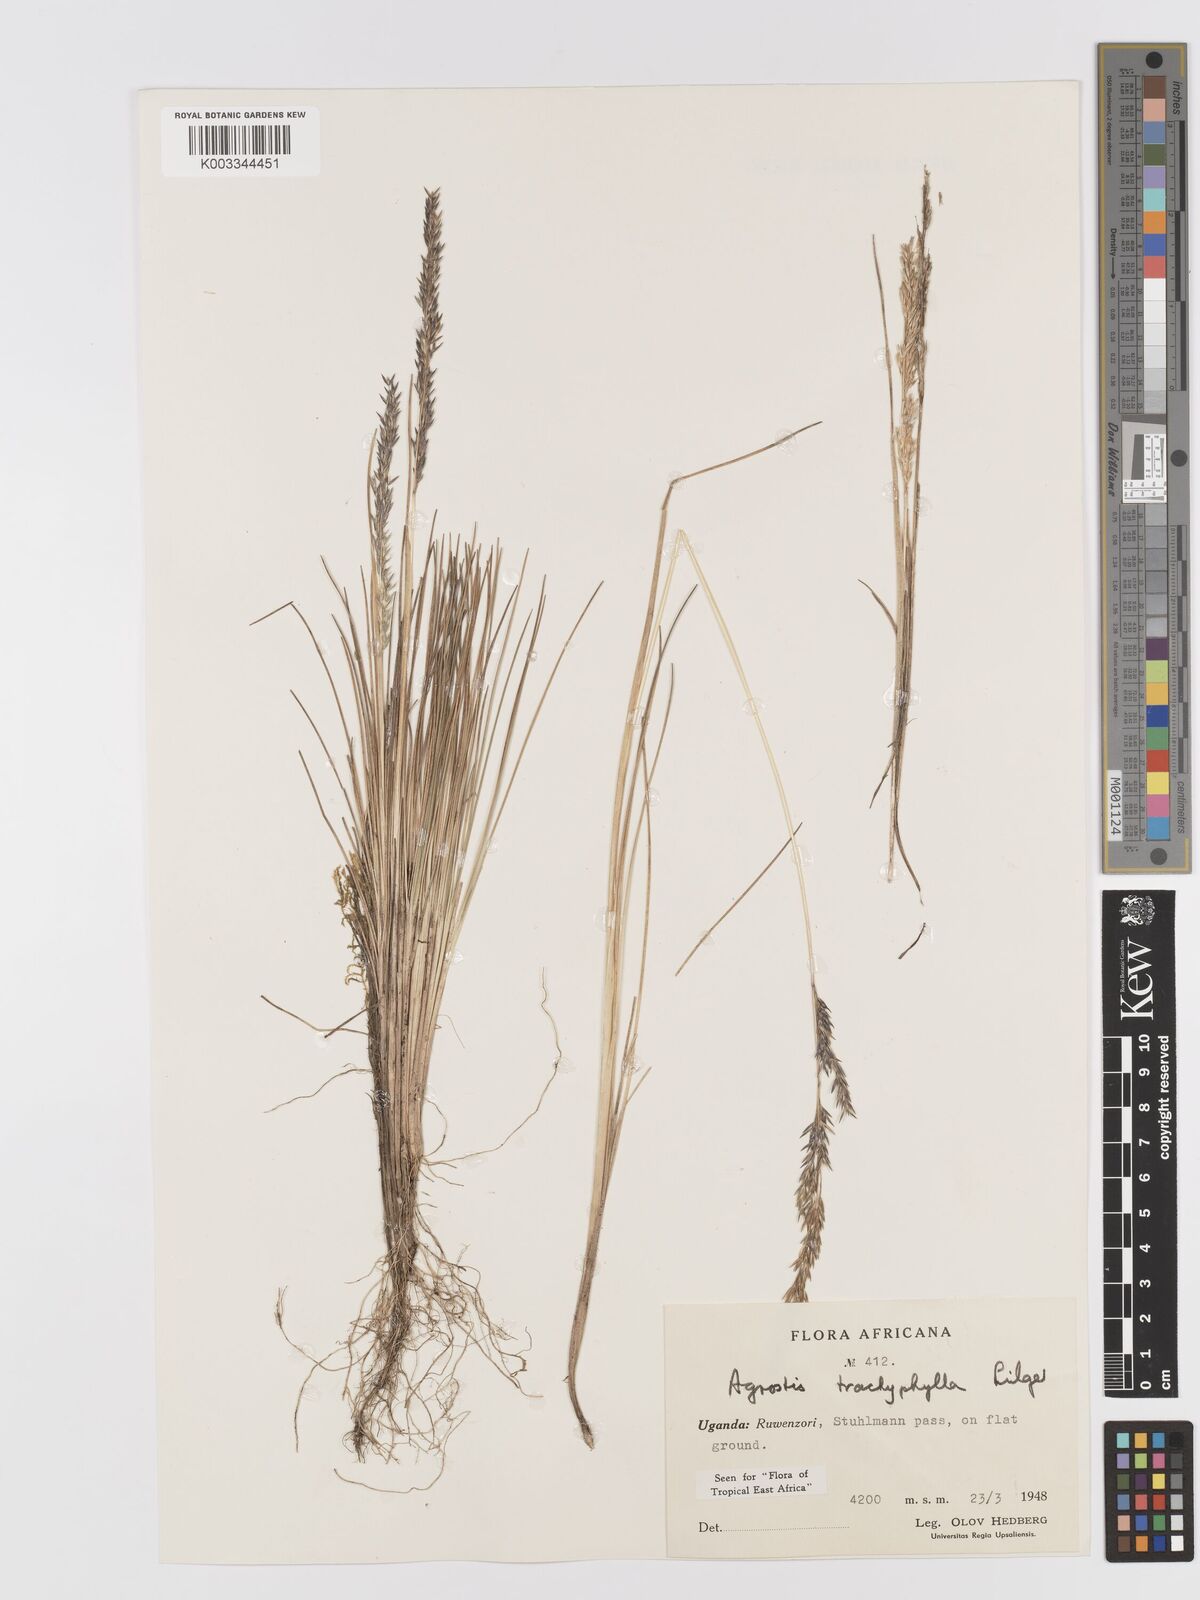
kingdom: Plantae
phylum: Tracheophyta
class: Liliopsida
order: Poales
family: Poaceae
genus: Agrostis
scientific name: Agrostis trachyphylla
